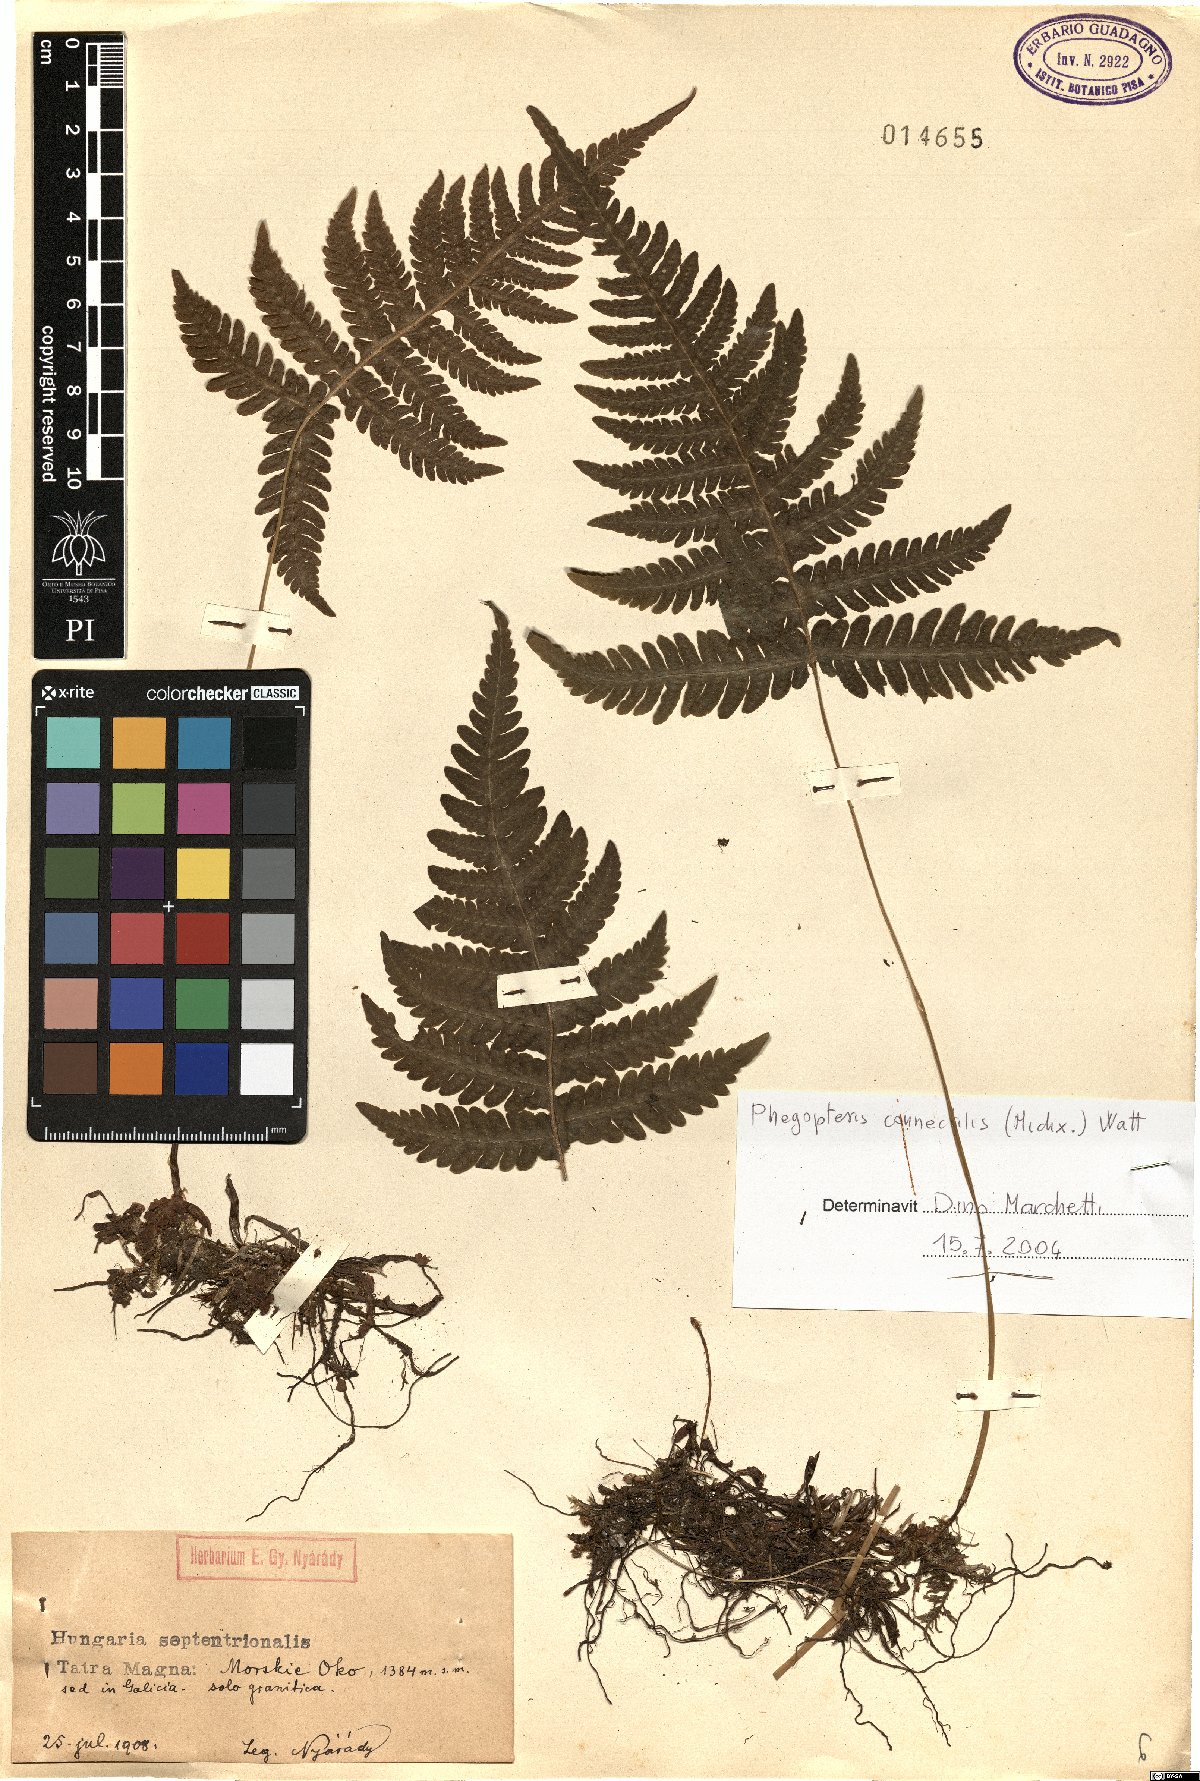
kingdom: Plantae
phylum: Tracheophyta
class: Polypodiopsida
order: Polypodiales
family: Thelypteridaceae
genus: Phegopteris
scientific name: Phegopteris connectilis
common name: Beech fern
